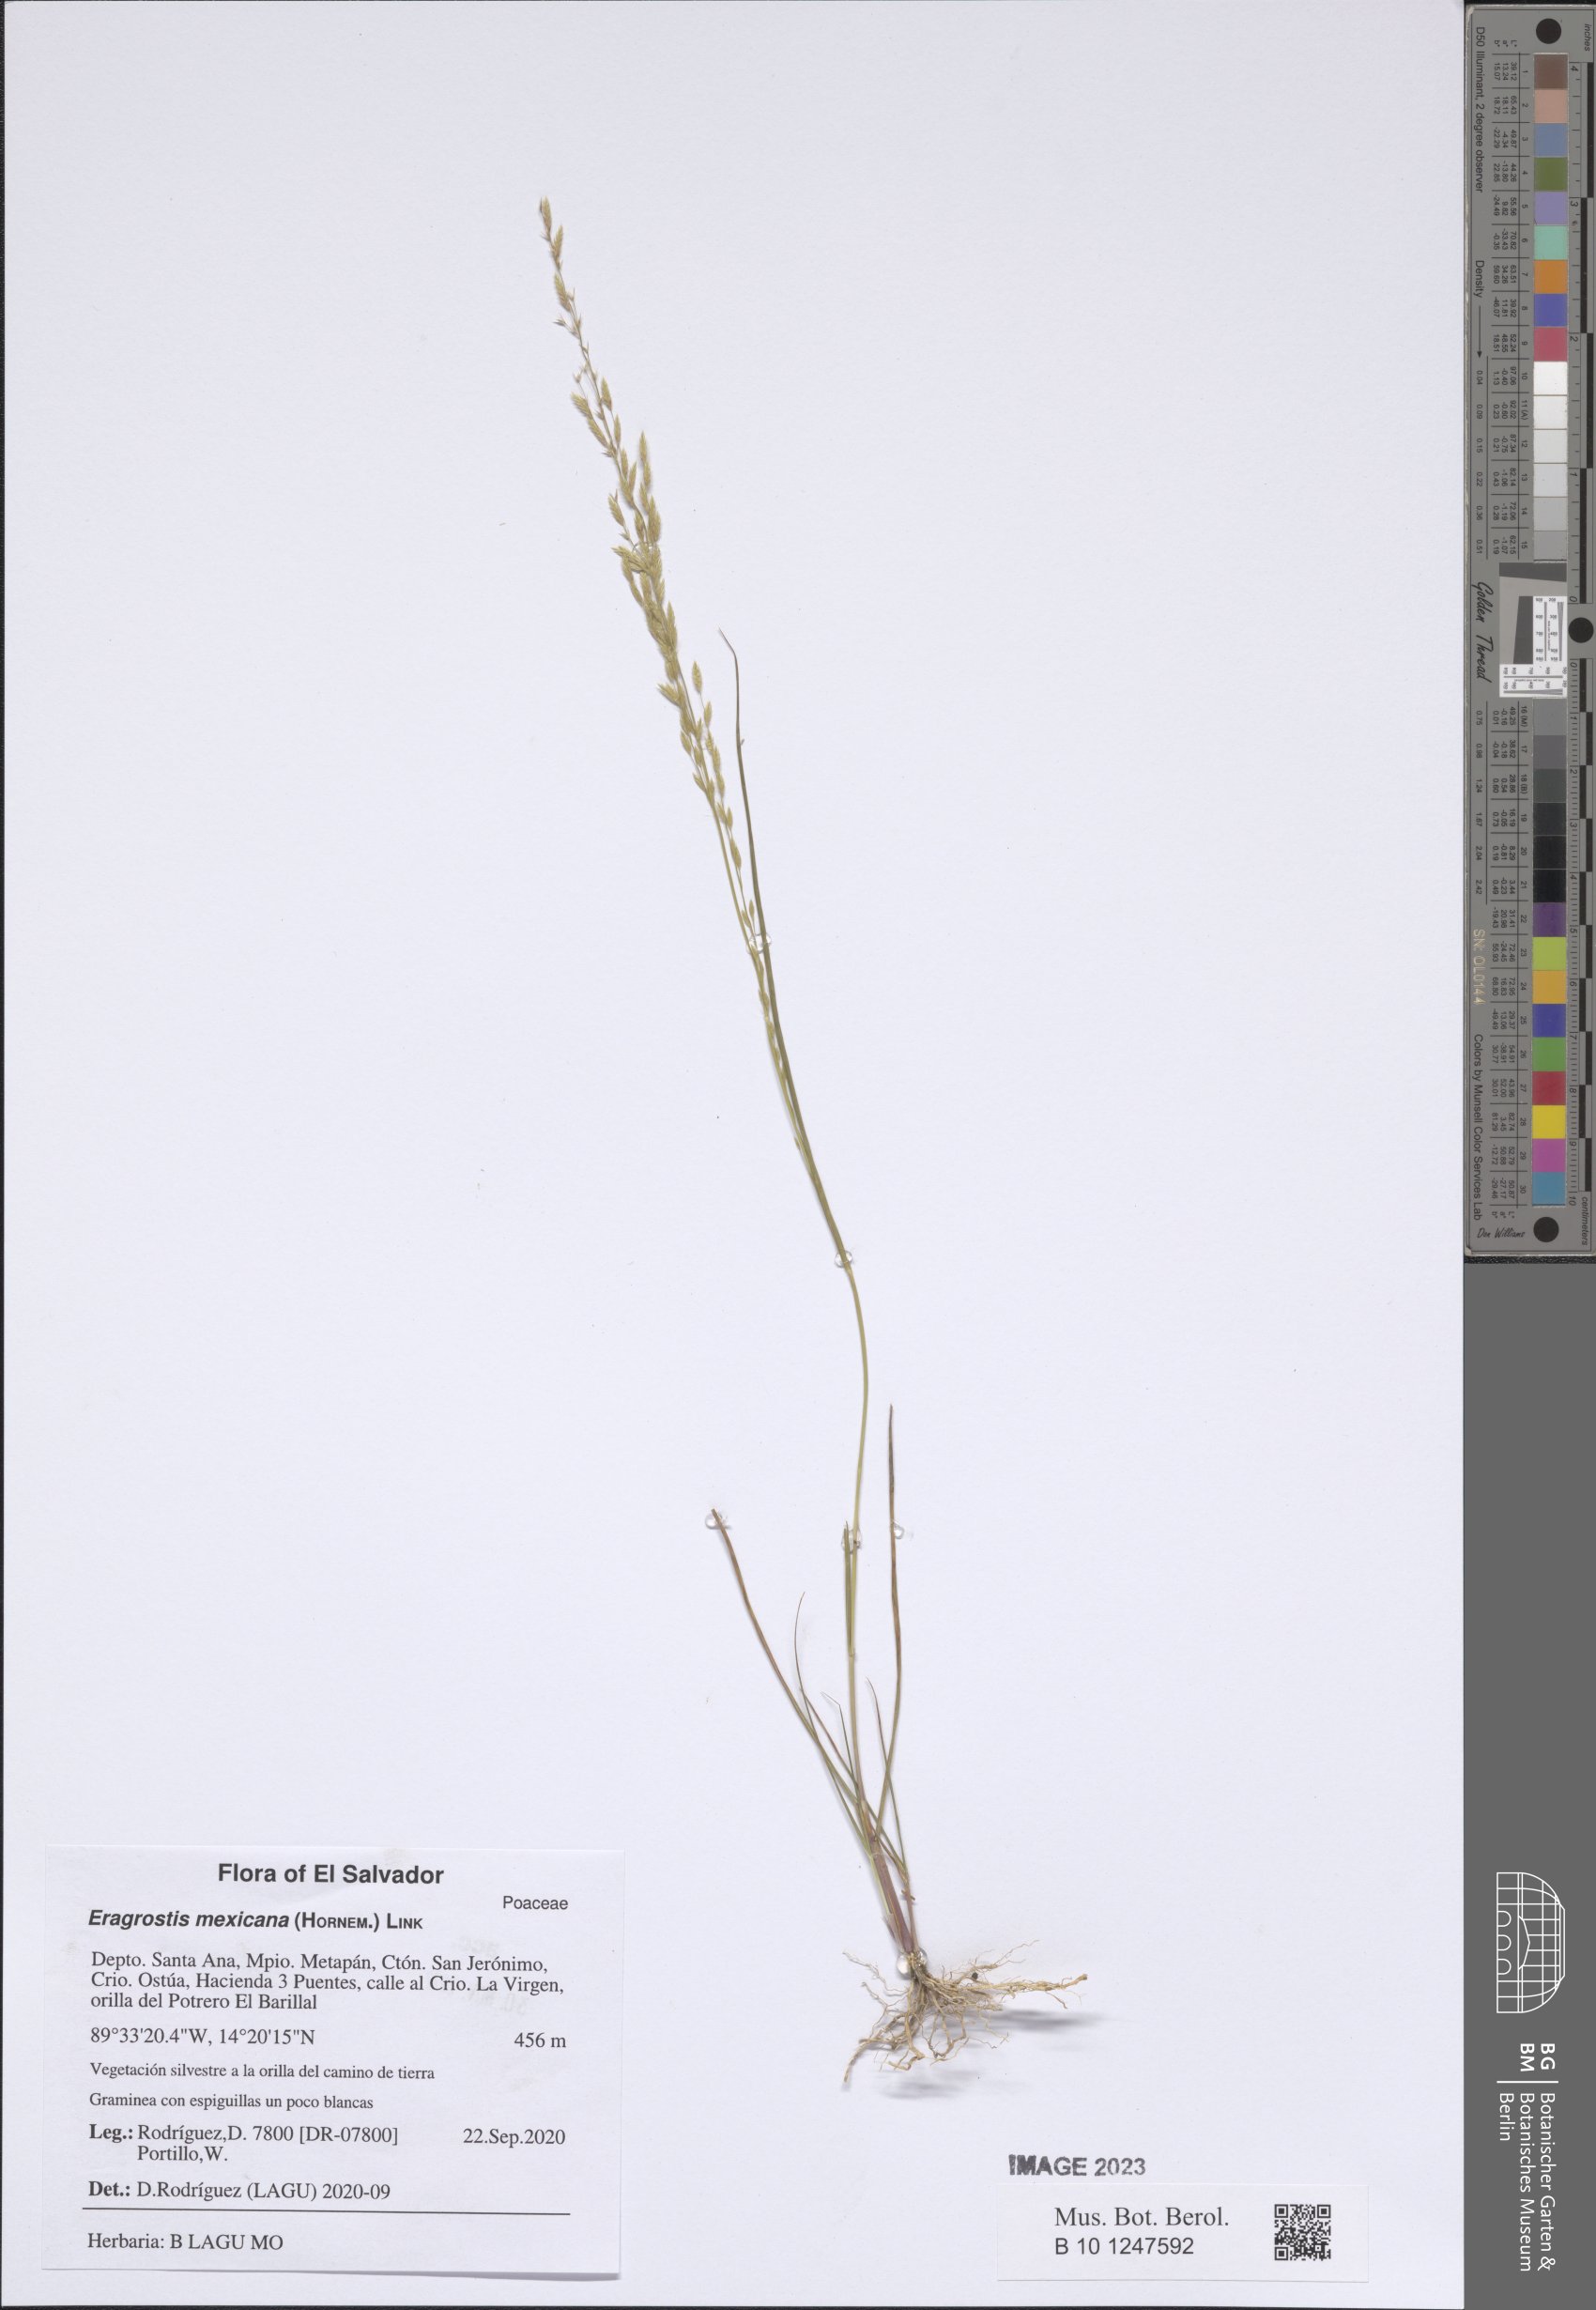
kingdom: Plantae
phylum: Tracheophyta
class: Liliopsida
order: Poales
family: Poaceae
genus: Eragrostis
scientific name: Eragrostis mexicana
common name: Mexican love grass
